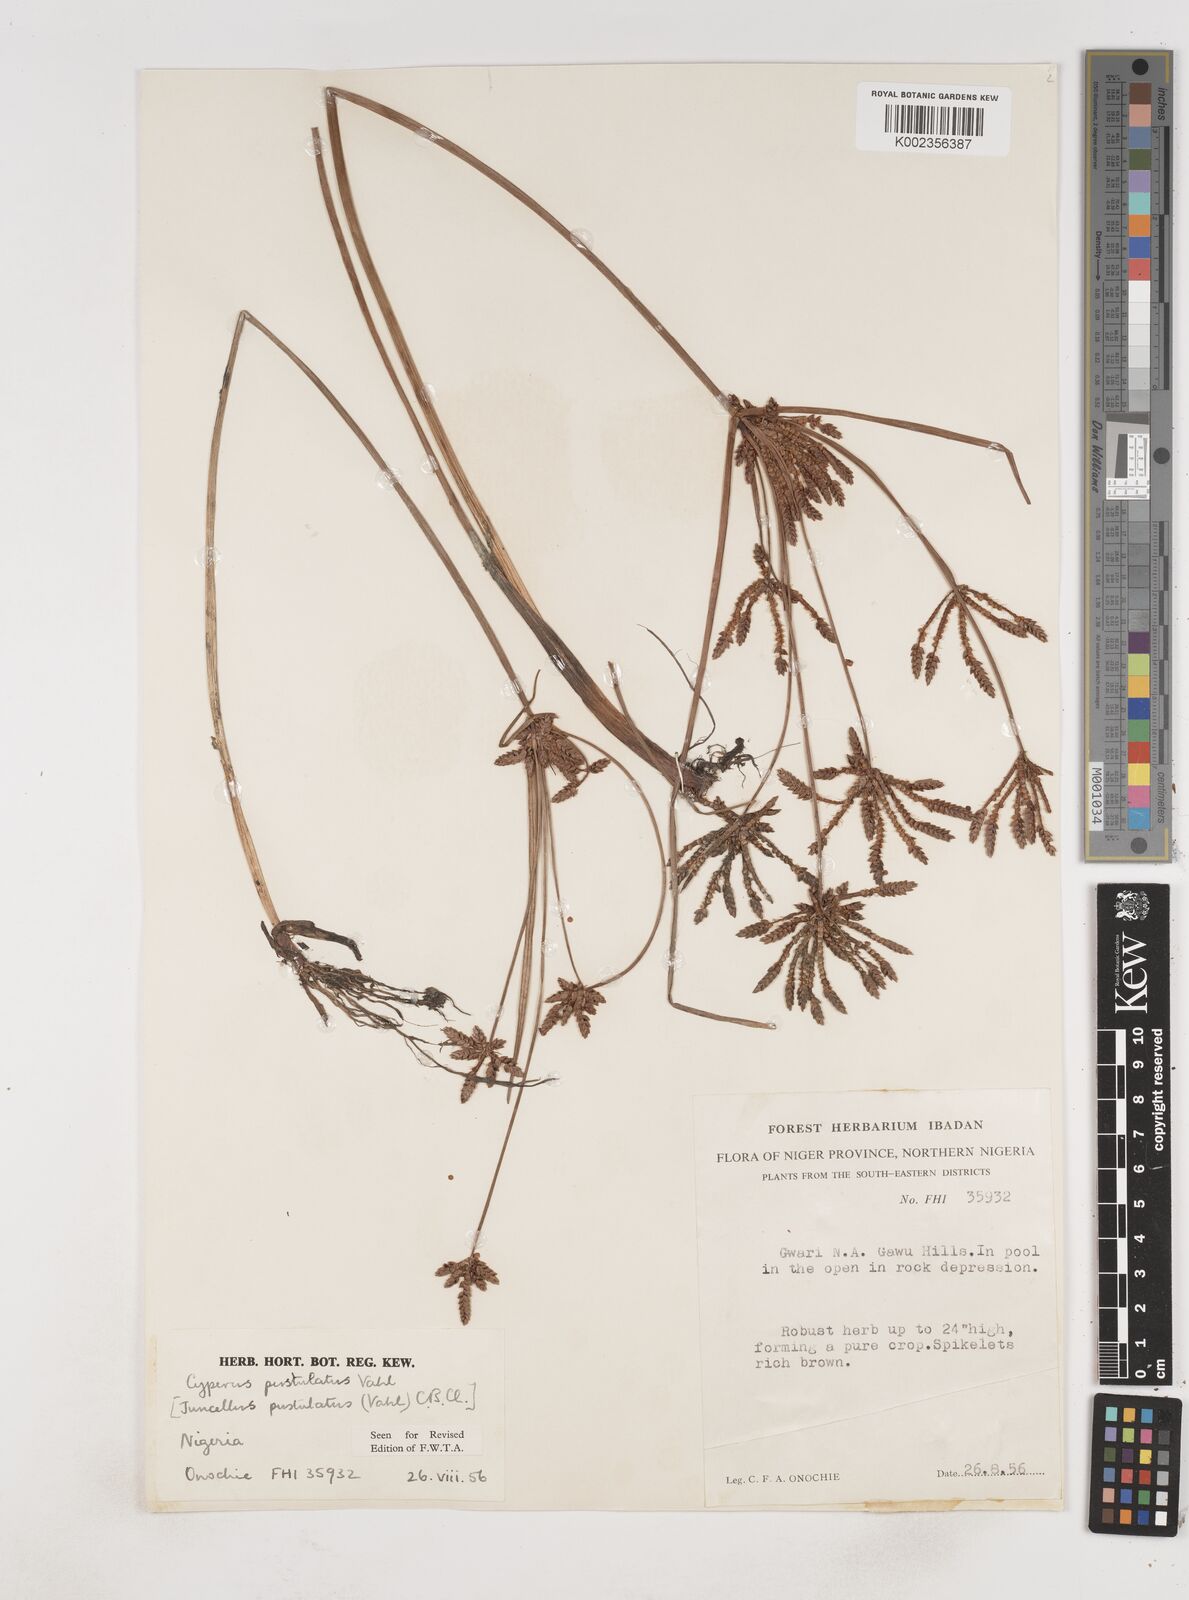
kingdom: Plantae
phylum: Tracheophyta
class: Liliopsida
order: Poales
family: Cyperaceae
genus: Cyperus
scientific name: Cyperus pustulatus
